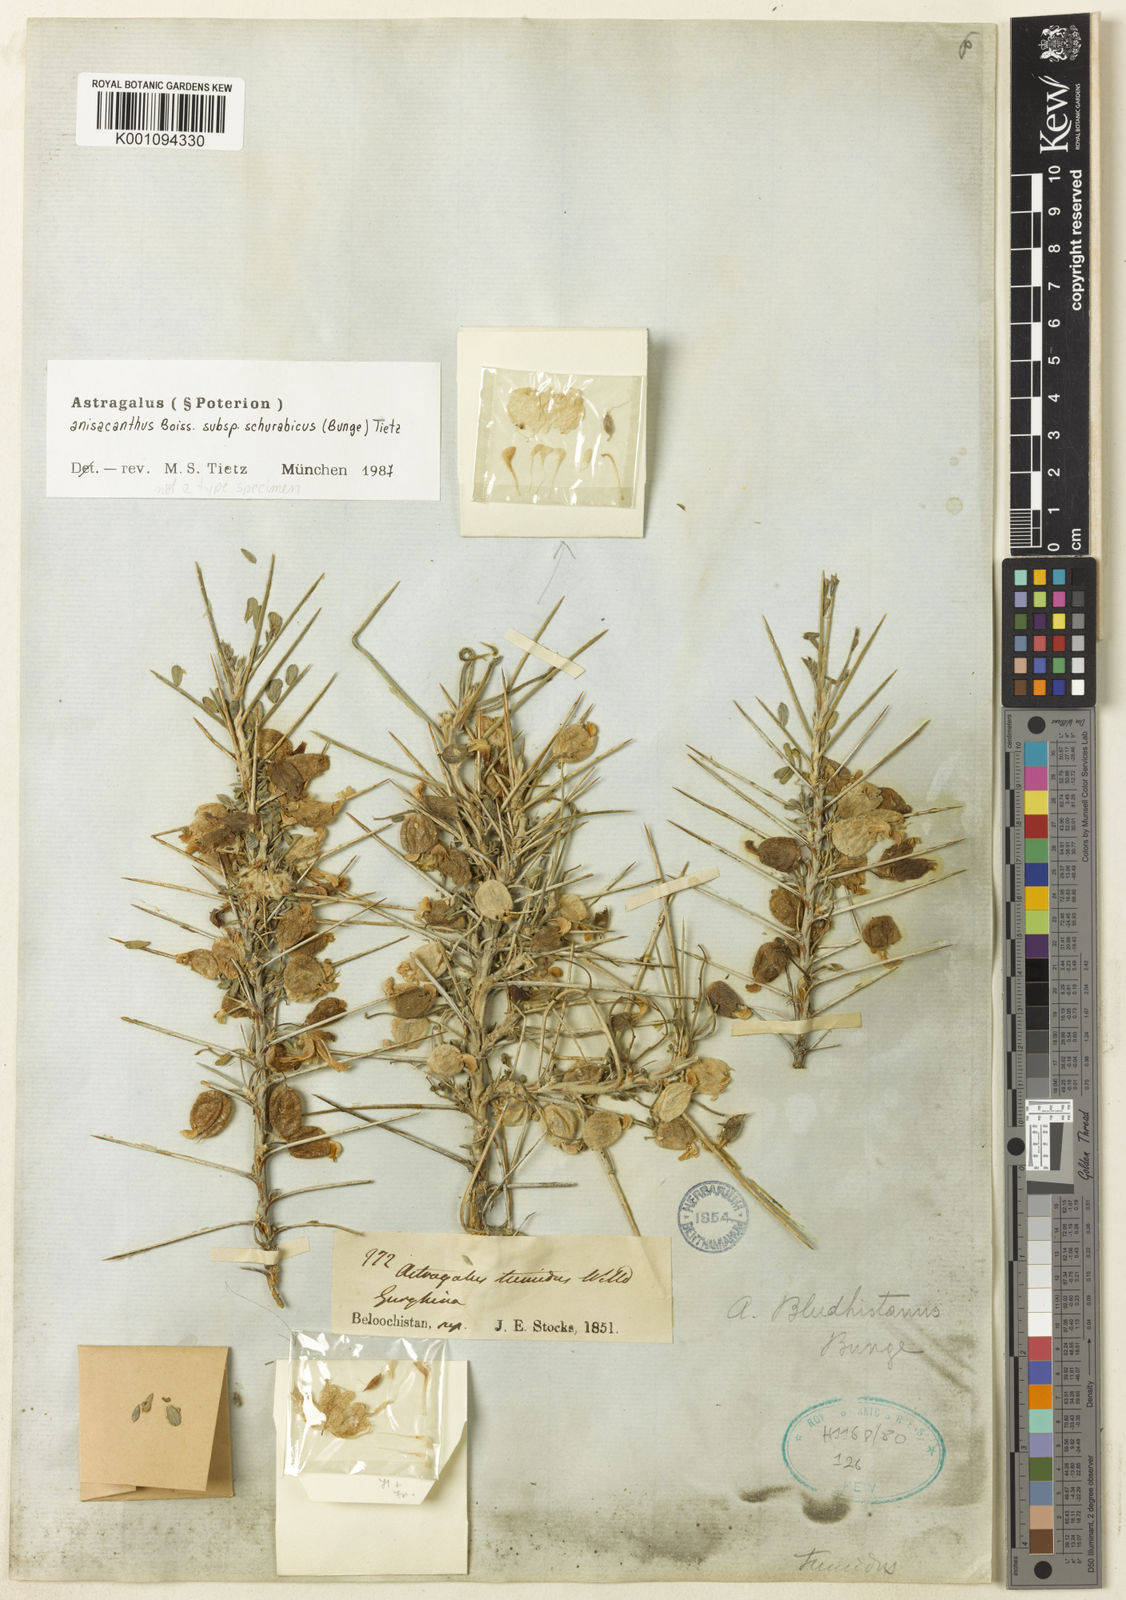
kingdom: Plantae
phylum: Tracheophyta
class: Magnoliopsida
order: Fabales
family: Fabaceae
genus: Astragalus
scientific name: Astragalus anisacanthus
